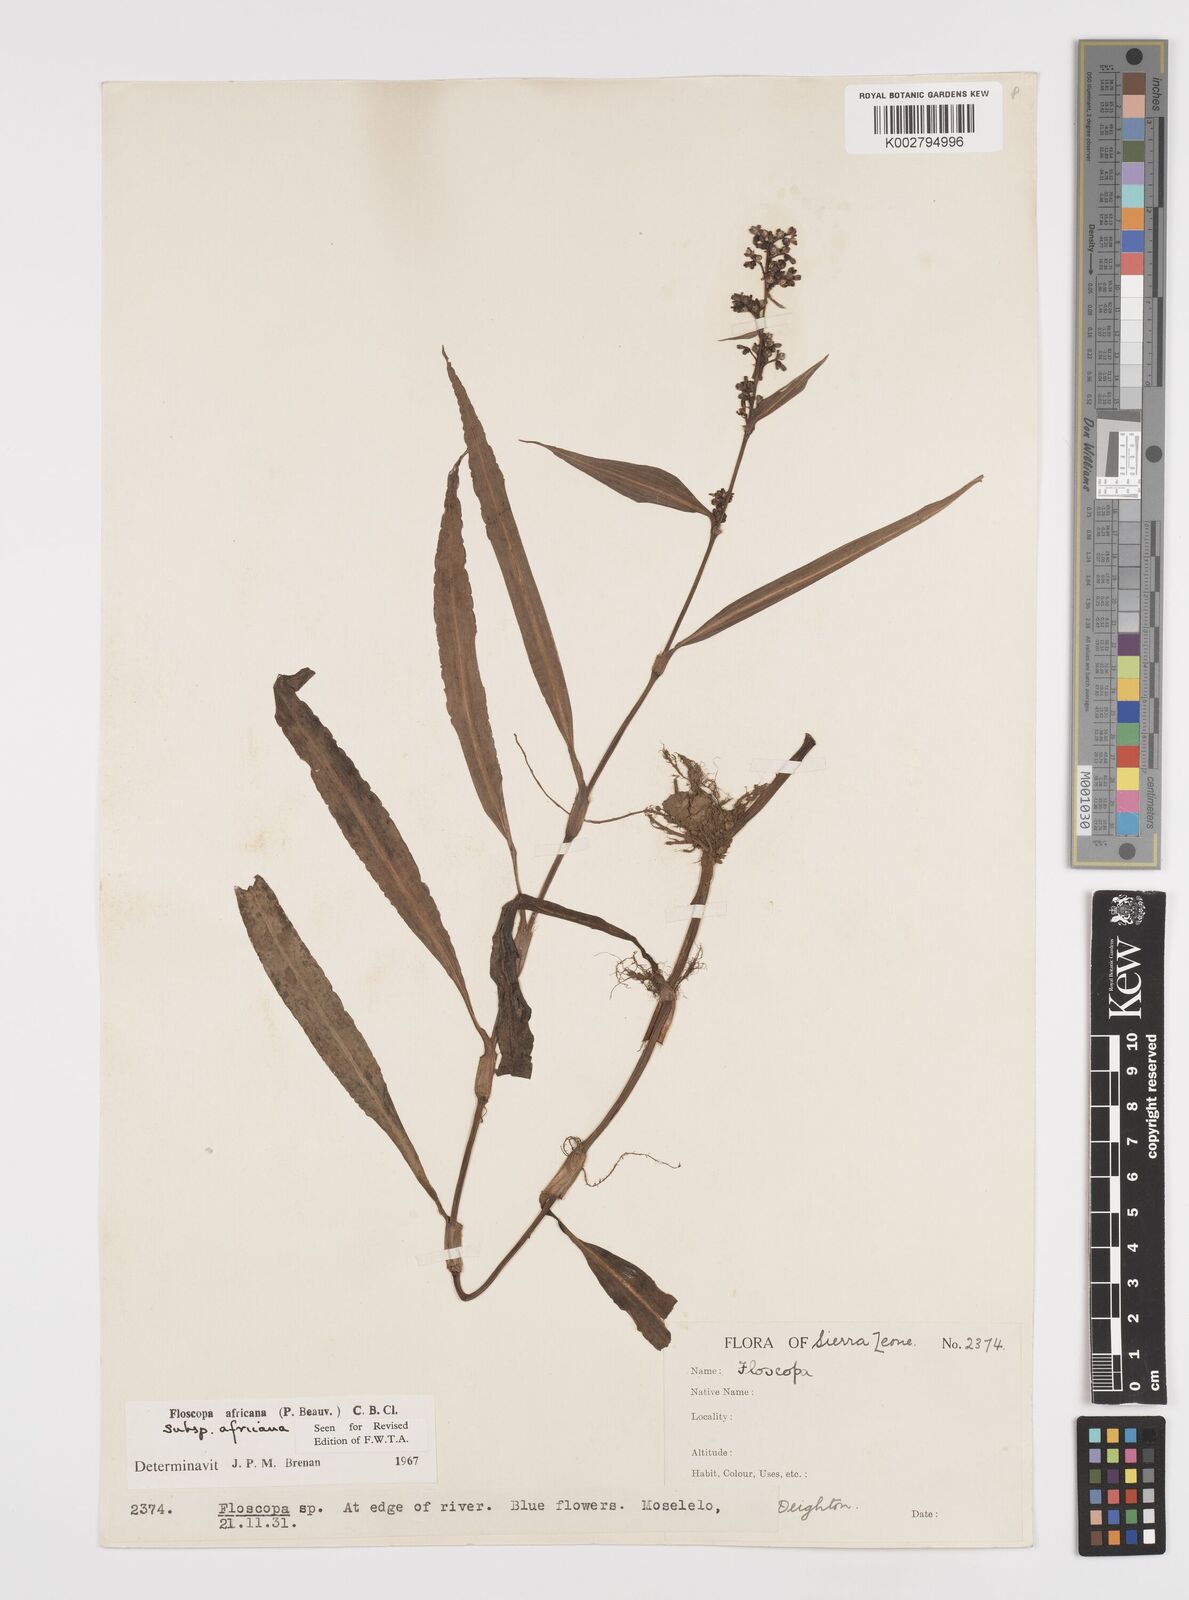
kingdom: Plantae
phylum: Tracheophyta
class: Liliopsida
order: Commelinales
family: Commelinaceae
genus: Floscopa
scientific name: Floscopa africana
